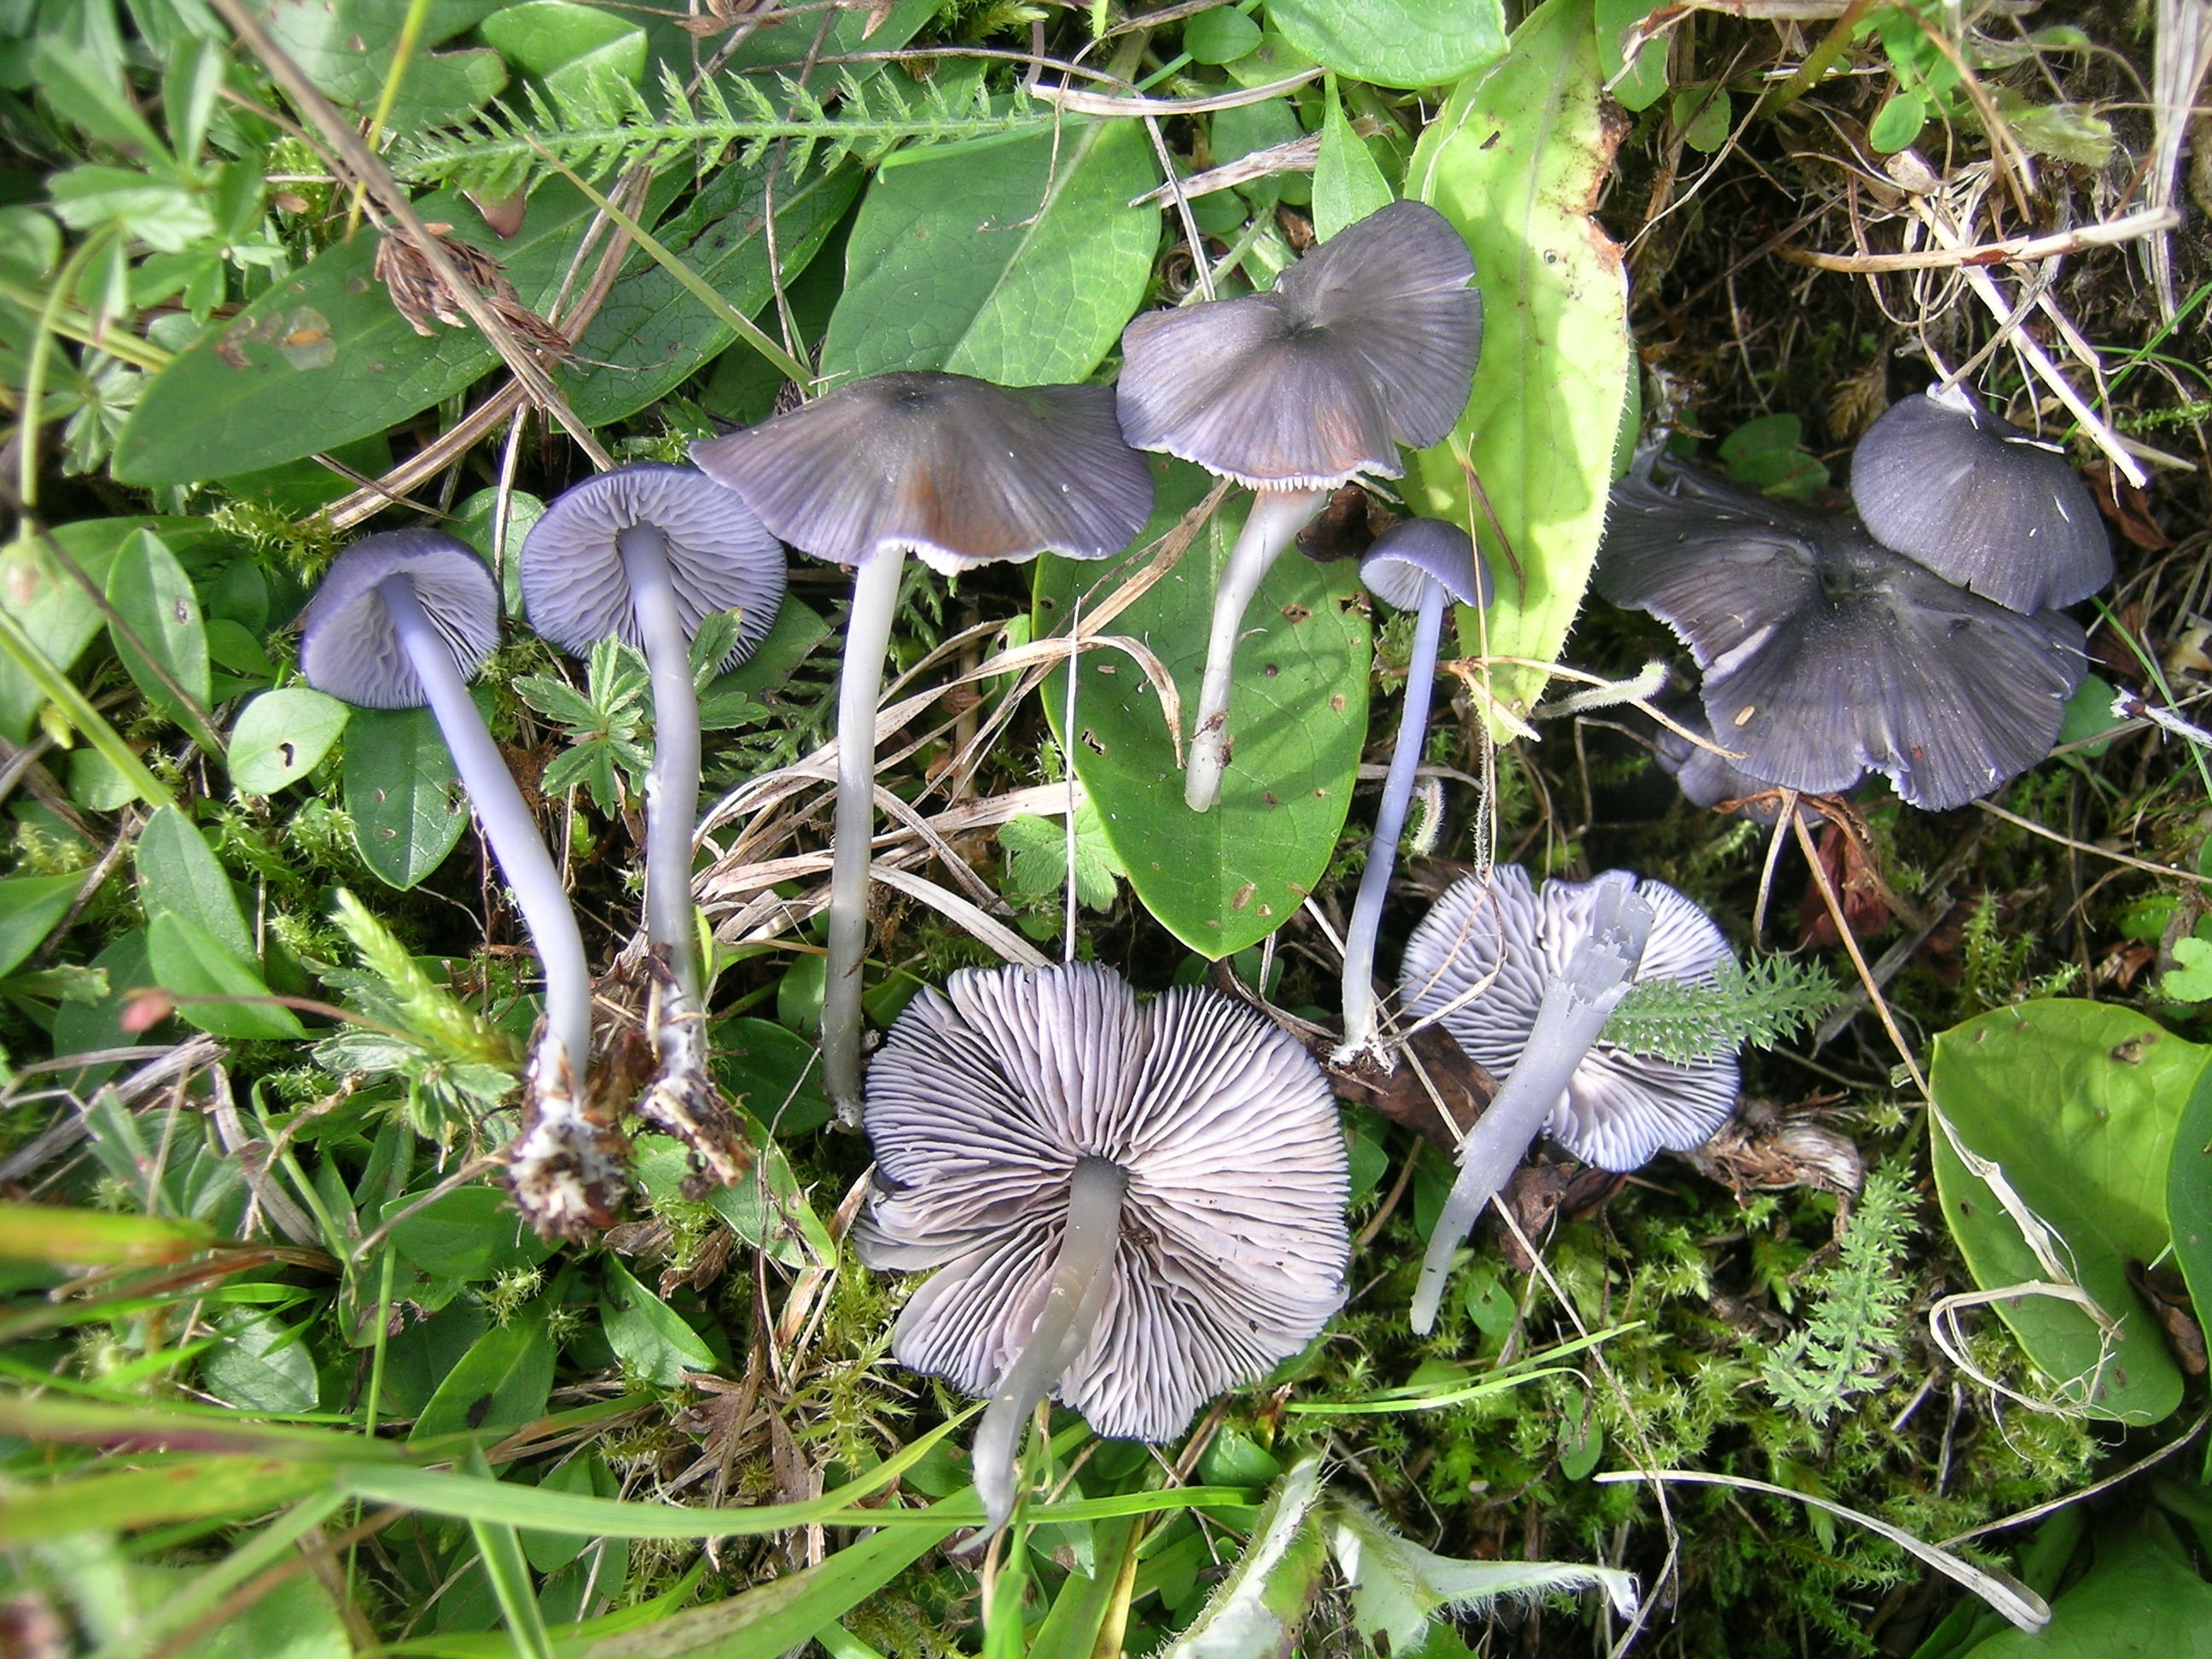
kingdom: Fungi
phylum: Basidiomycota
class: Agaricomycetes
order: Agaricales
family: Entolomataceae
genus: Entoloma
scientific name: Entoloma lepiotosmum
